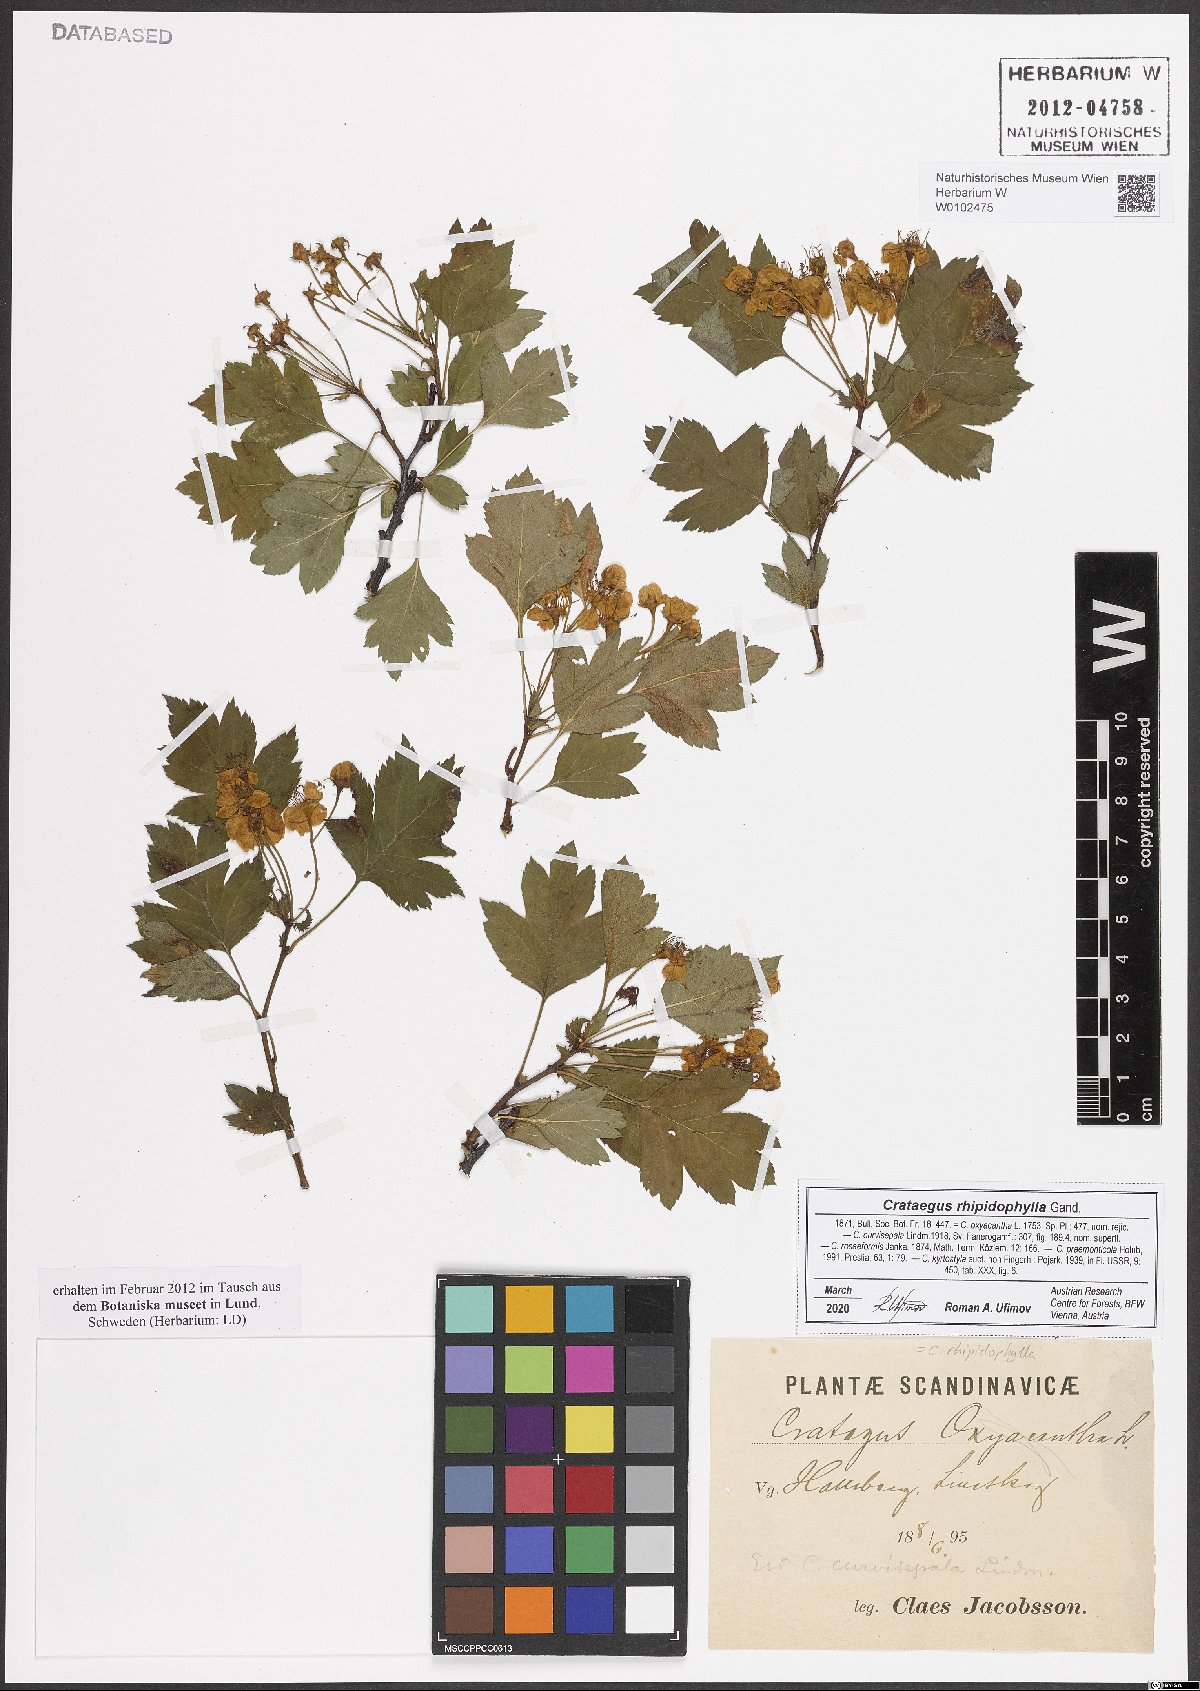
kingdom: Plantae
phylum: Tracheophyta
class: Magnoliopsida
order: Rosales
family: Rosaceae
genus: Crataegus
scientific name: Crataegus rhipidophylla
